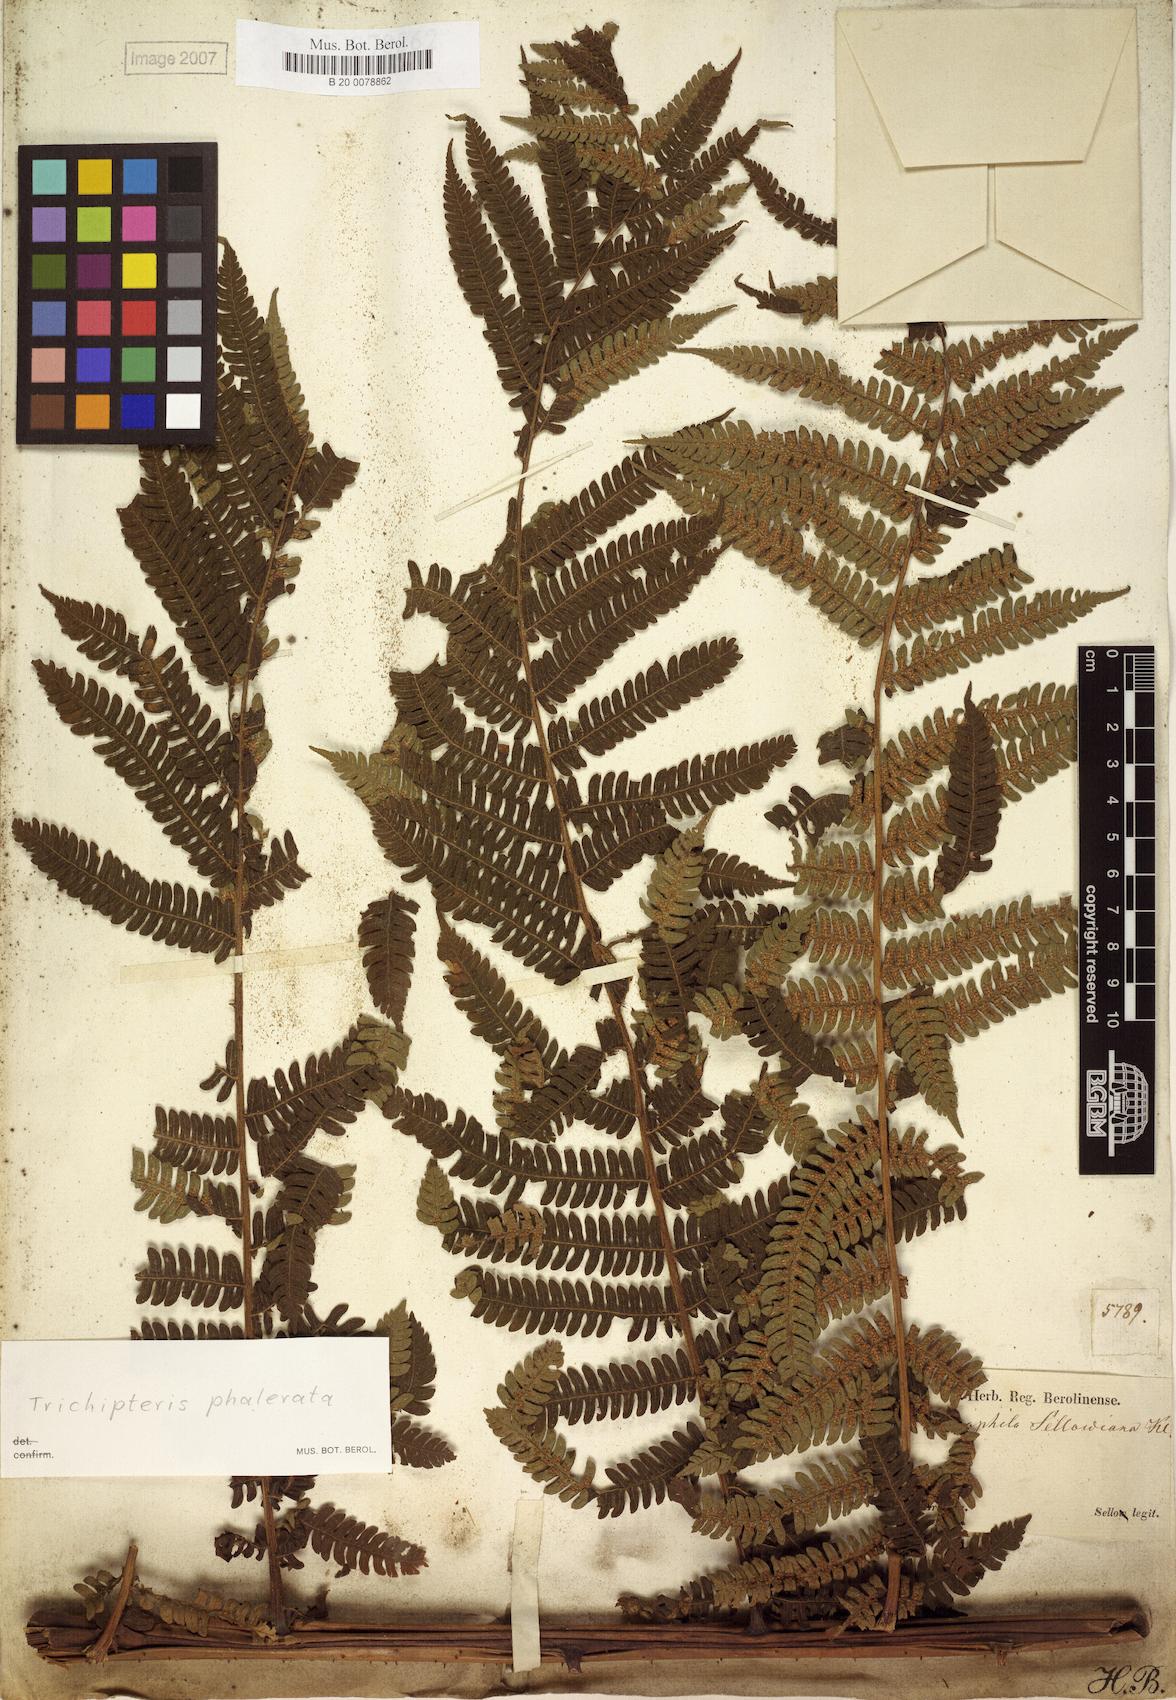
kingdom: Plantae
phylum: Tracheophyta
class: Polypodiopsida
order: Cyatheales
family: Cyatheaceae
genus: Cyathea
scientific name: Cyathea phalerata
